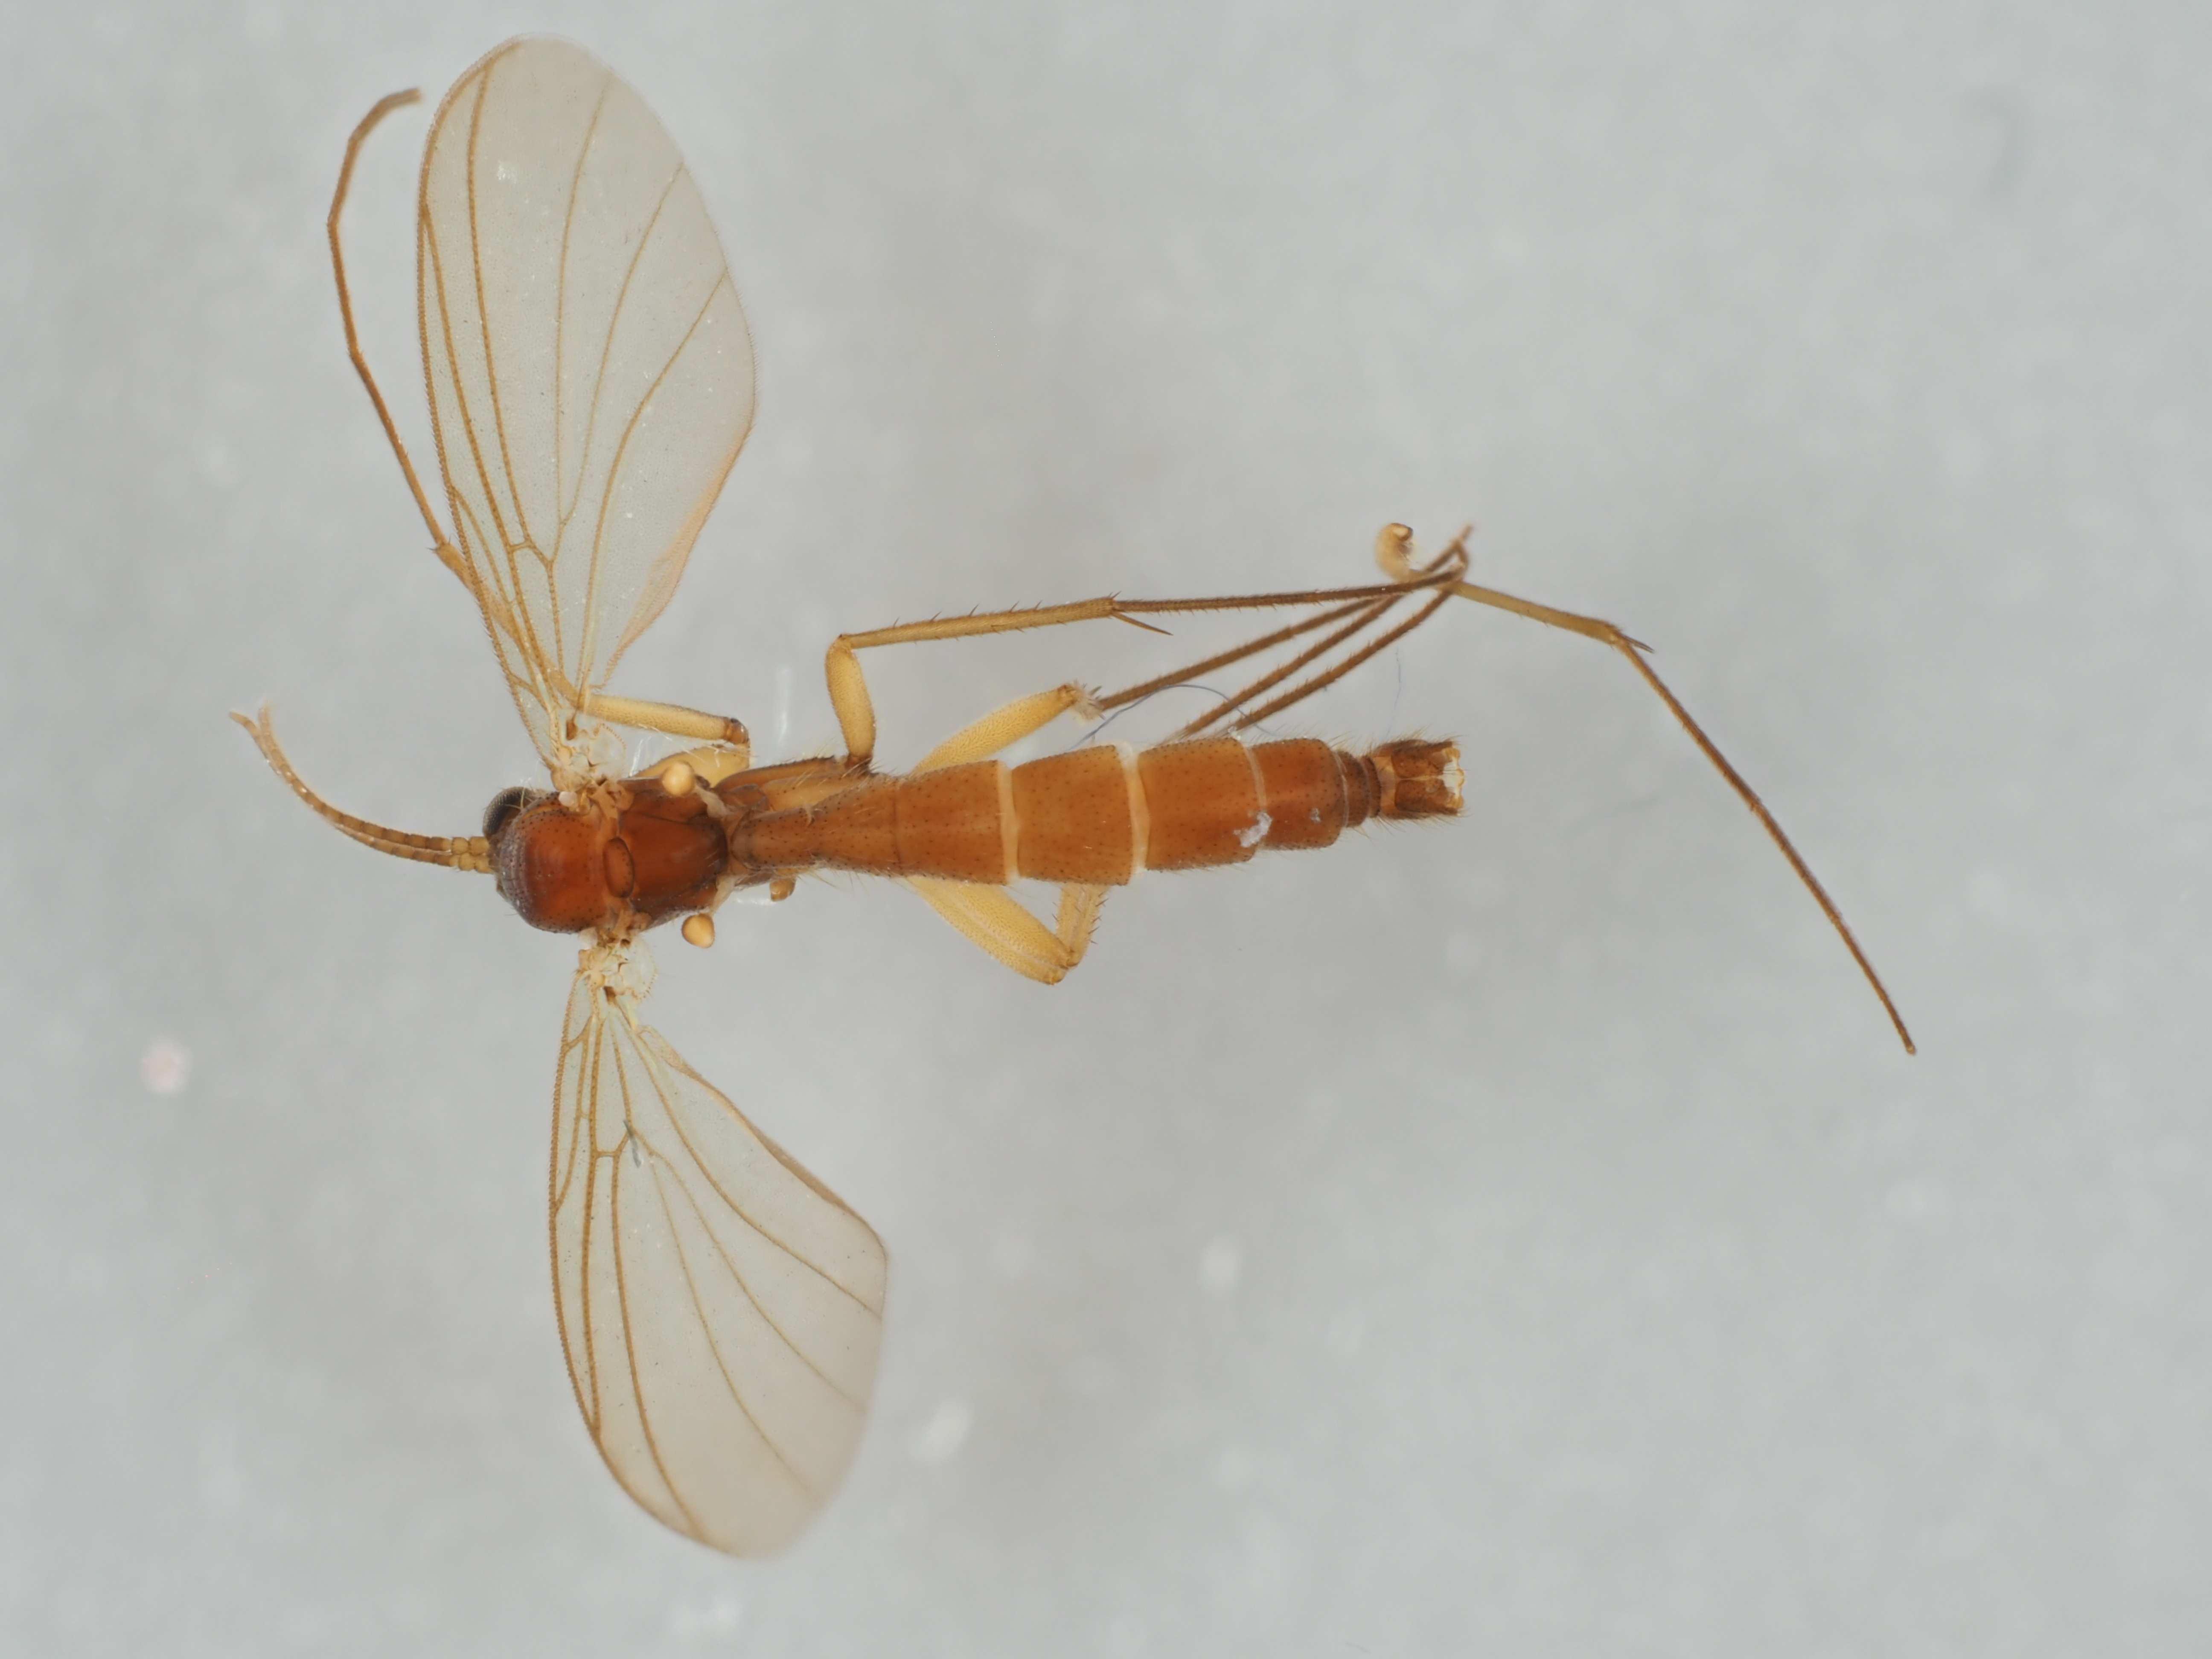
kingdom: Animalia
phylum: Arthropoda
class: Insecta
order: Diptera
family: Mycetophilidae
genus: Acnemia
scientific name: Acnemia longipes
